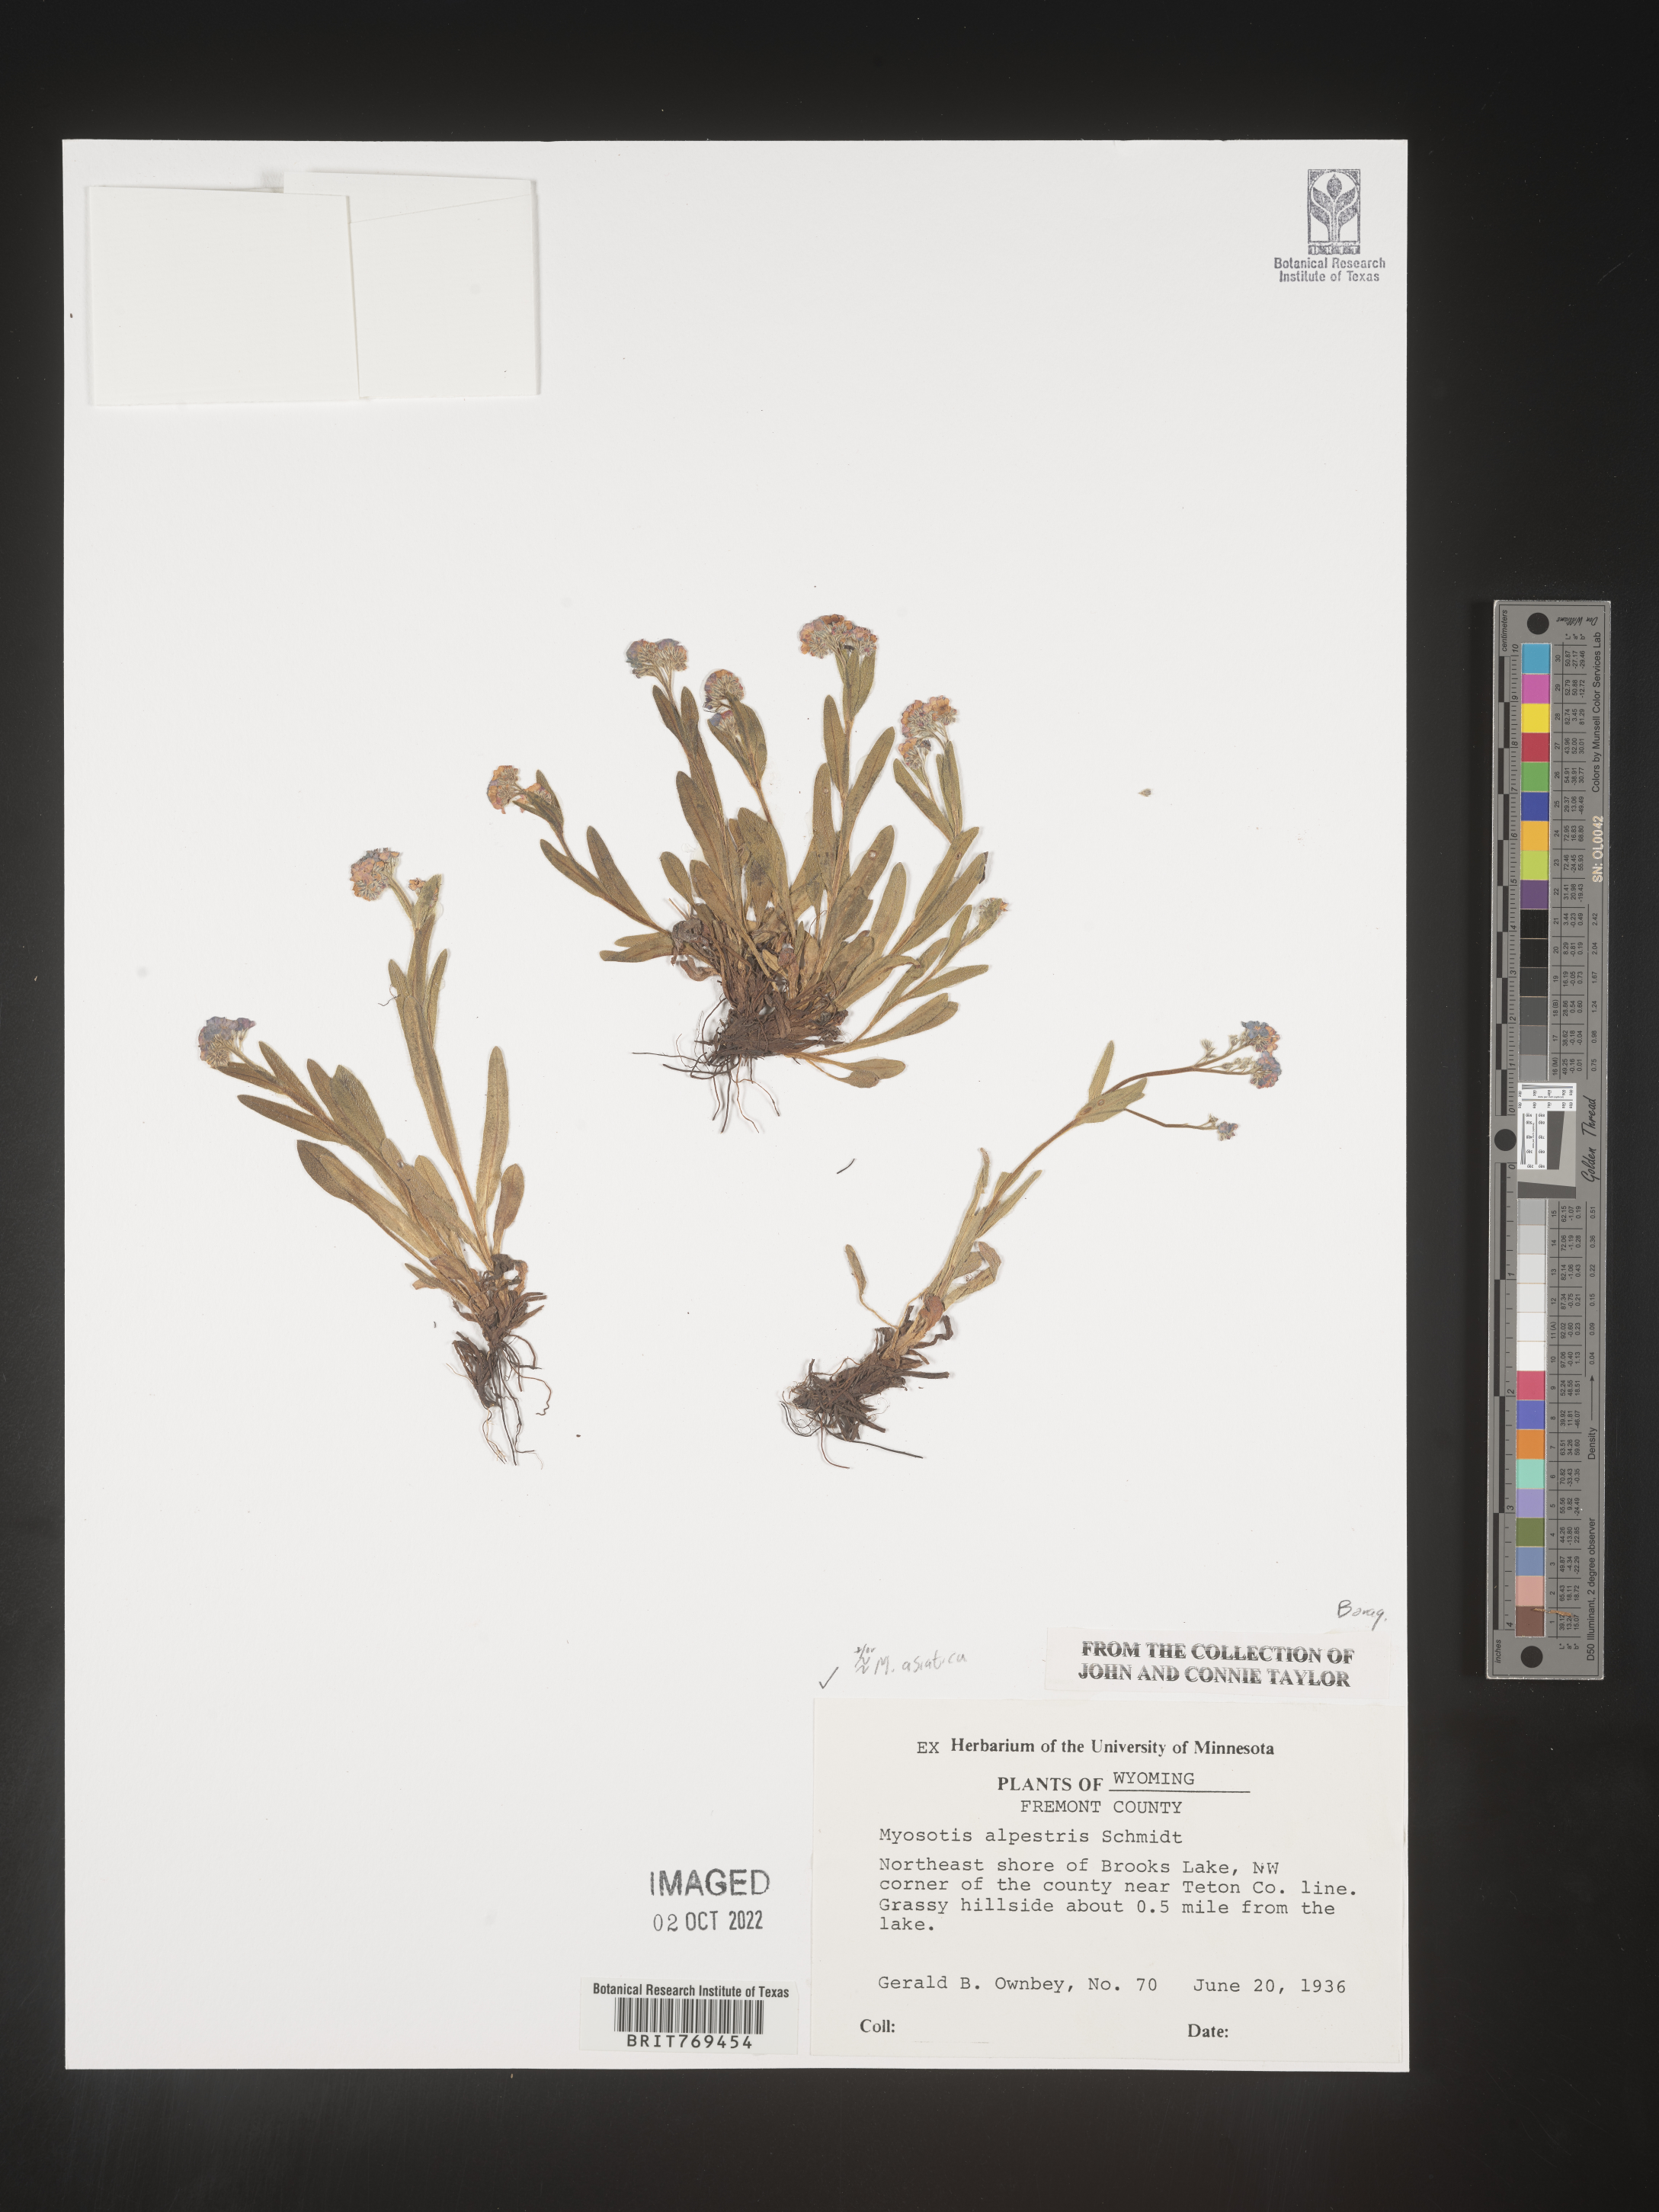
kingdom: Plantae
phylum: Tracheophyta
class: Magnoliopsida
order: Boraginales
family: Boraginaceae
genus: Myosotis
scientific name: Myosotis
